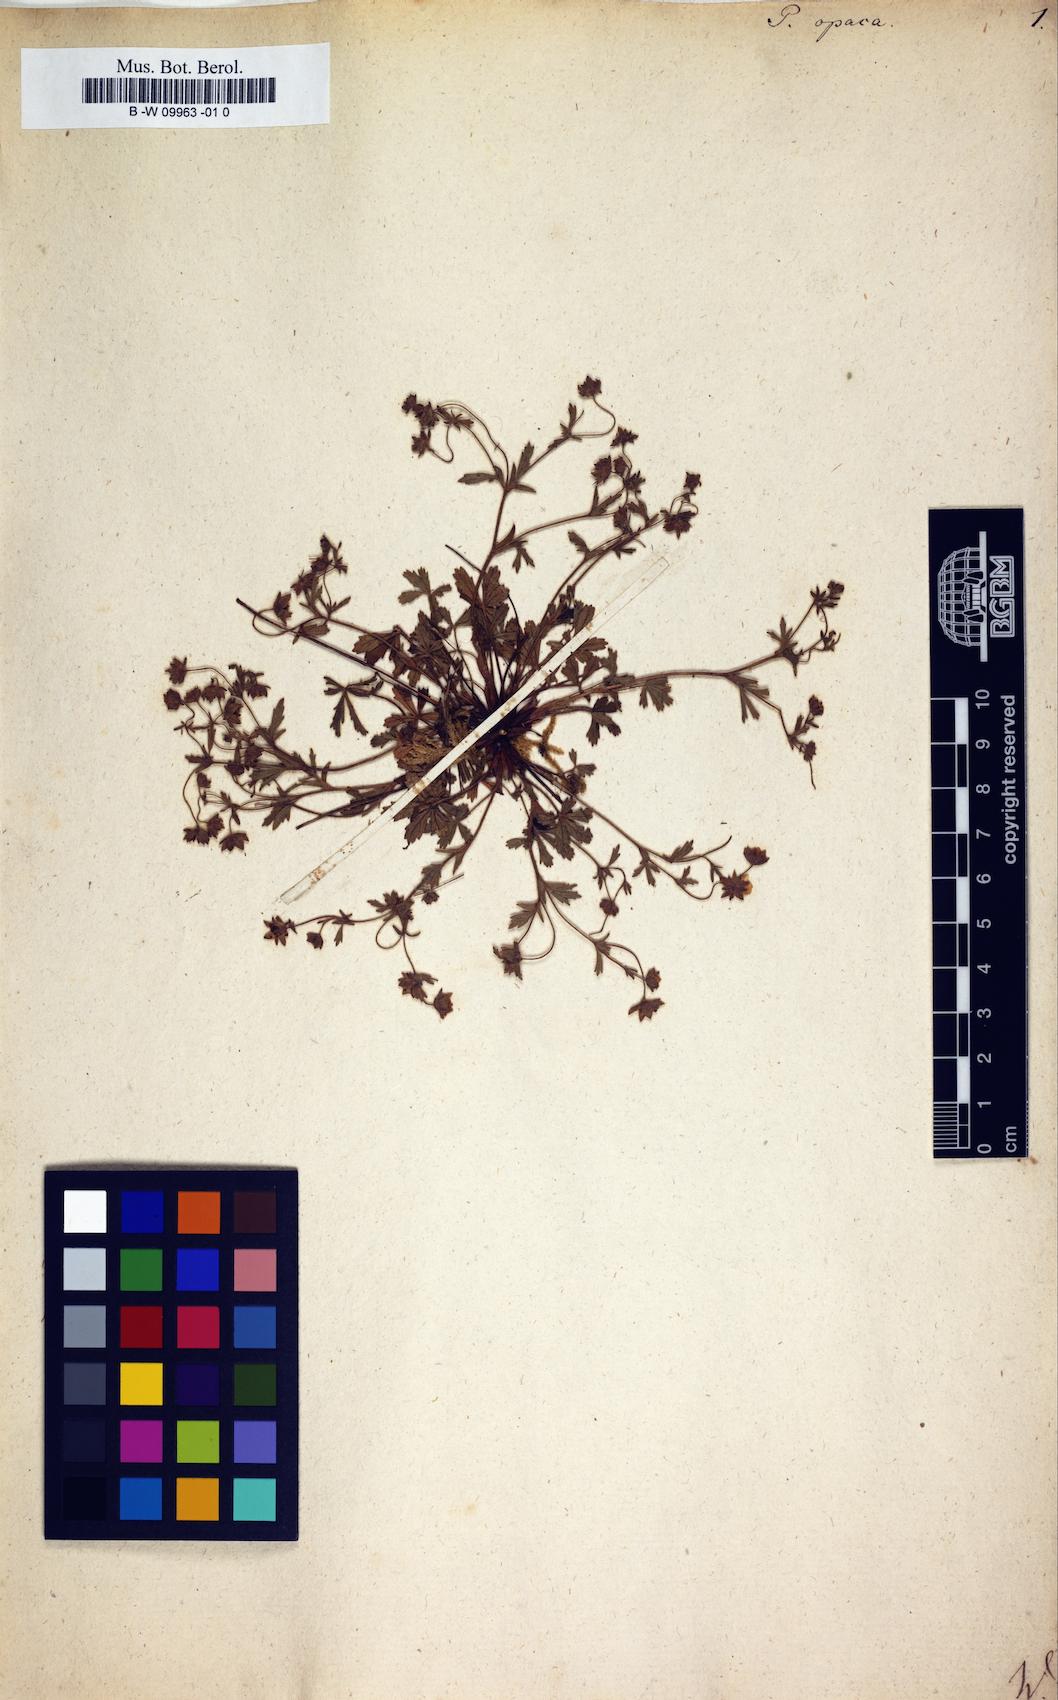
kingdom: Plantae
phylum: Tracheophyta
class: Magnoliopsida
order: Rosales
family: Rosaceae
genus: Potentilla
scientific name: Potentilla
